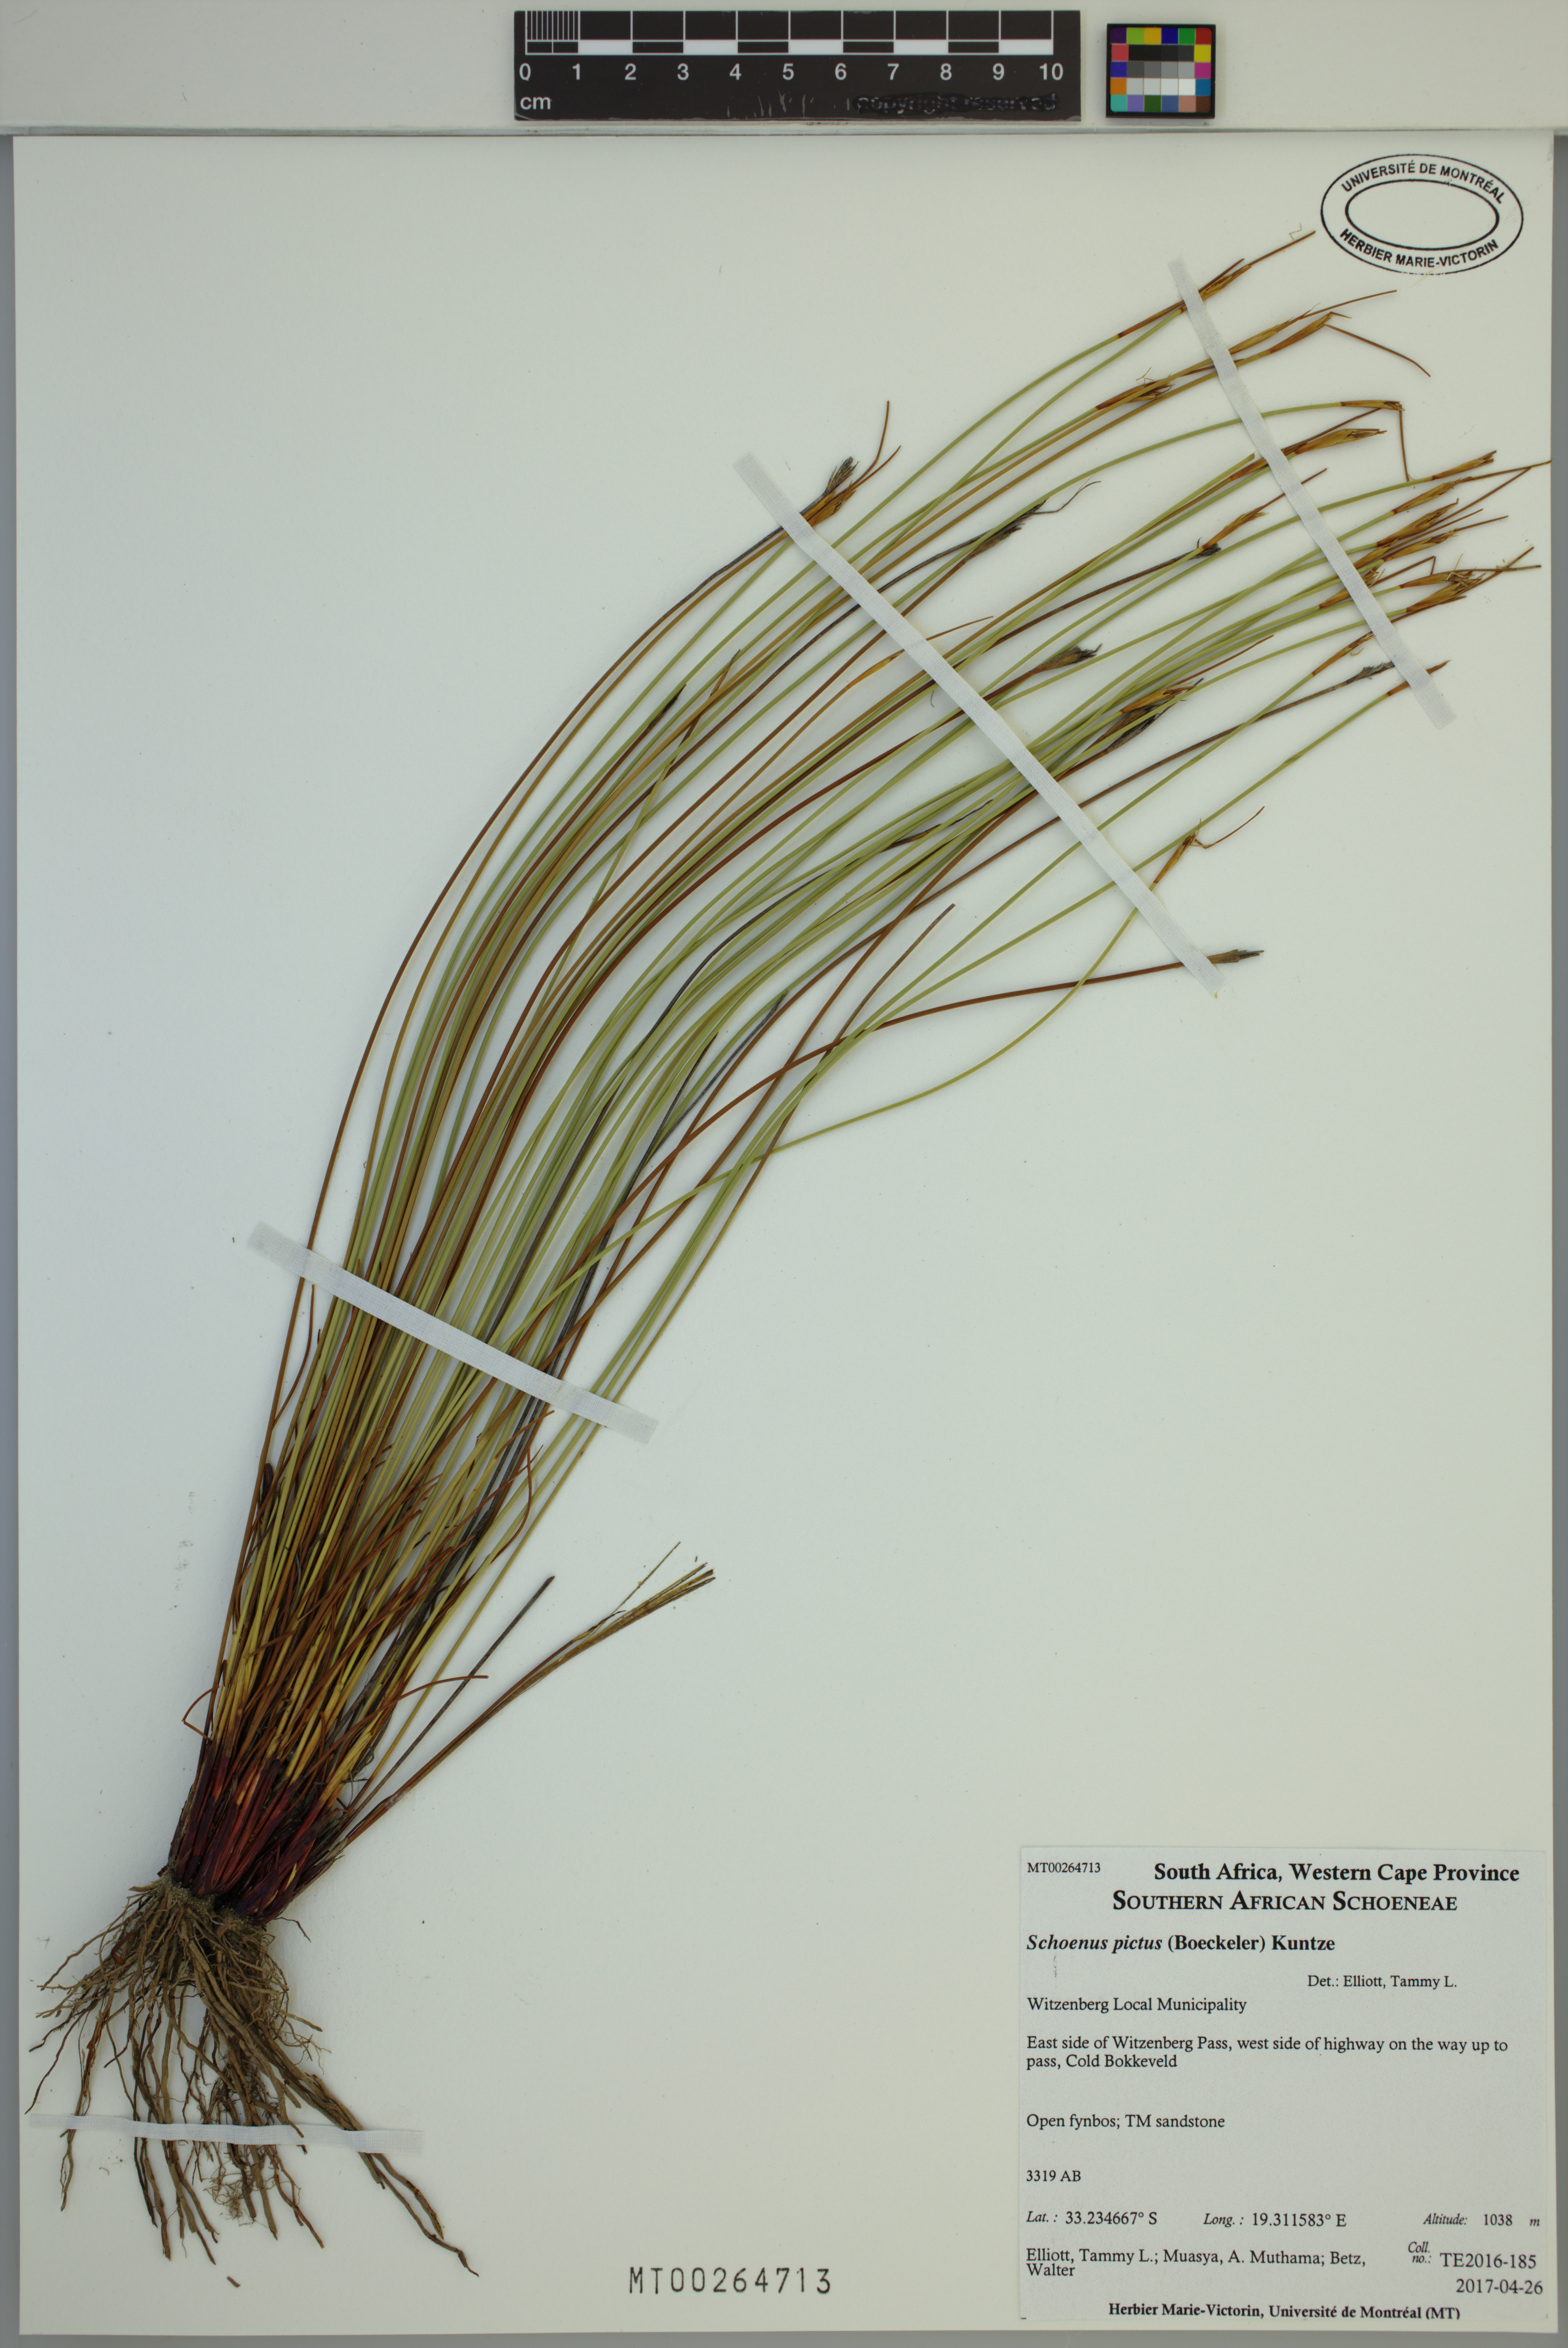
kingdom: Plantae
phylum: Tracheophyta
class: Liliopsida
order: Poales
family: Cyperaceae
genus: Schoenus
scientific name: Schoenus pictus
